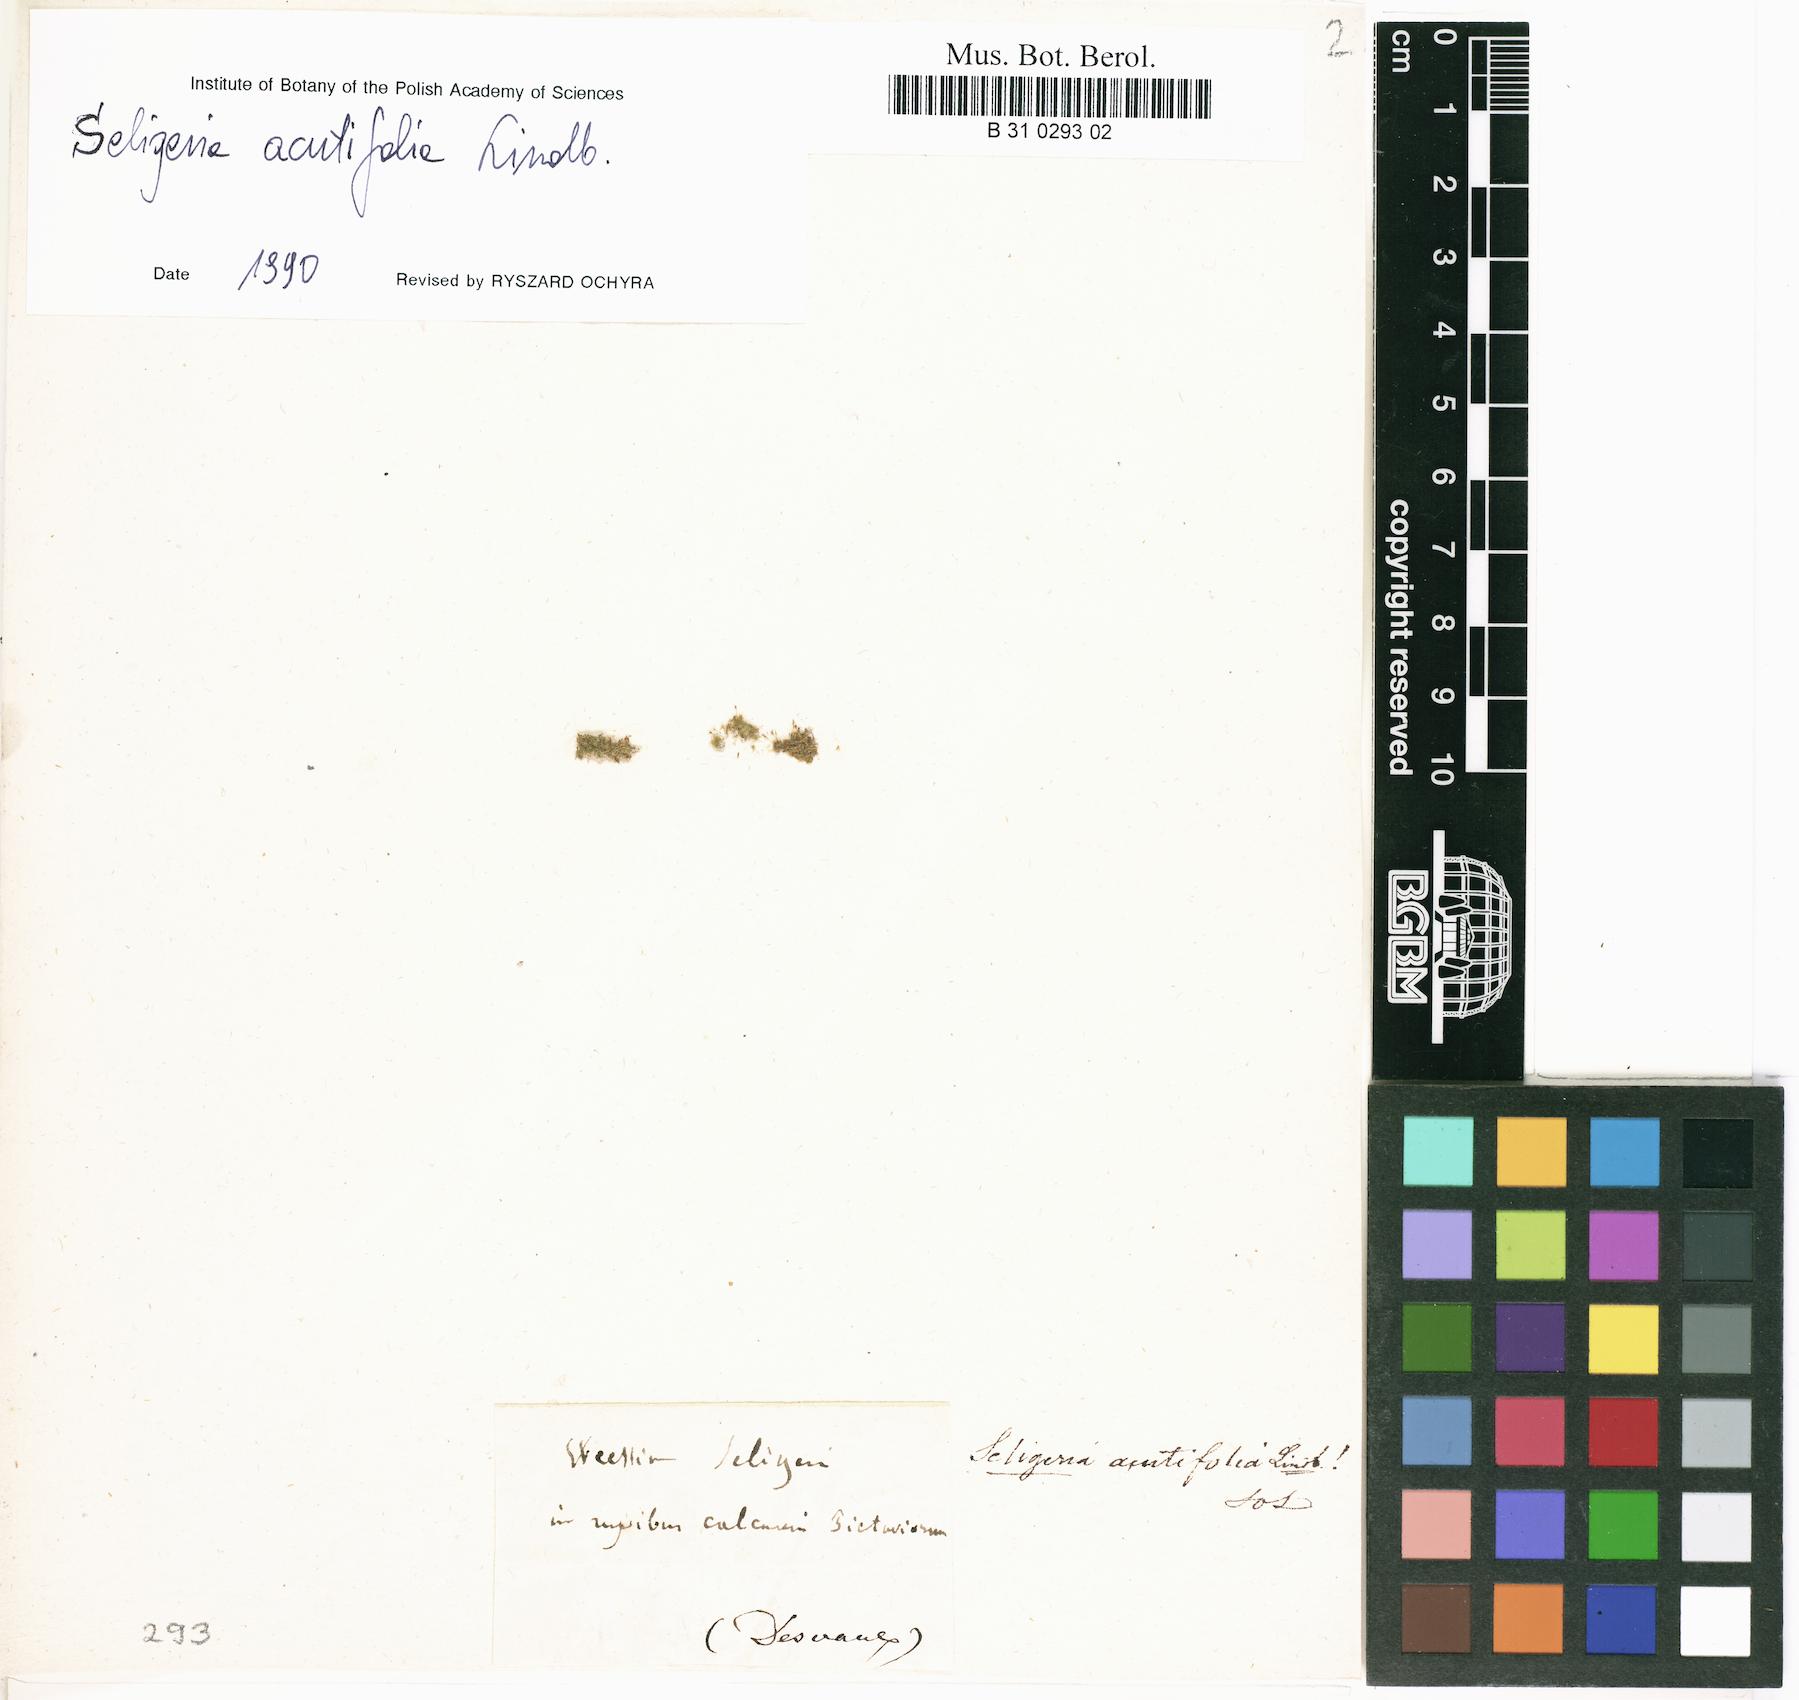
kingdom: Plantae
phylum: Bryophyta
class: Bryopsida
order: Grimmiales
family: Seligeriaceae
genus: Seligeria
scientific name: Seligeria pusilla
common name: Dwarf rock-bristle
